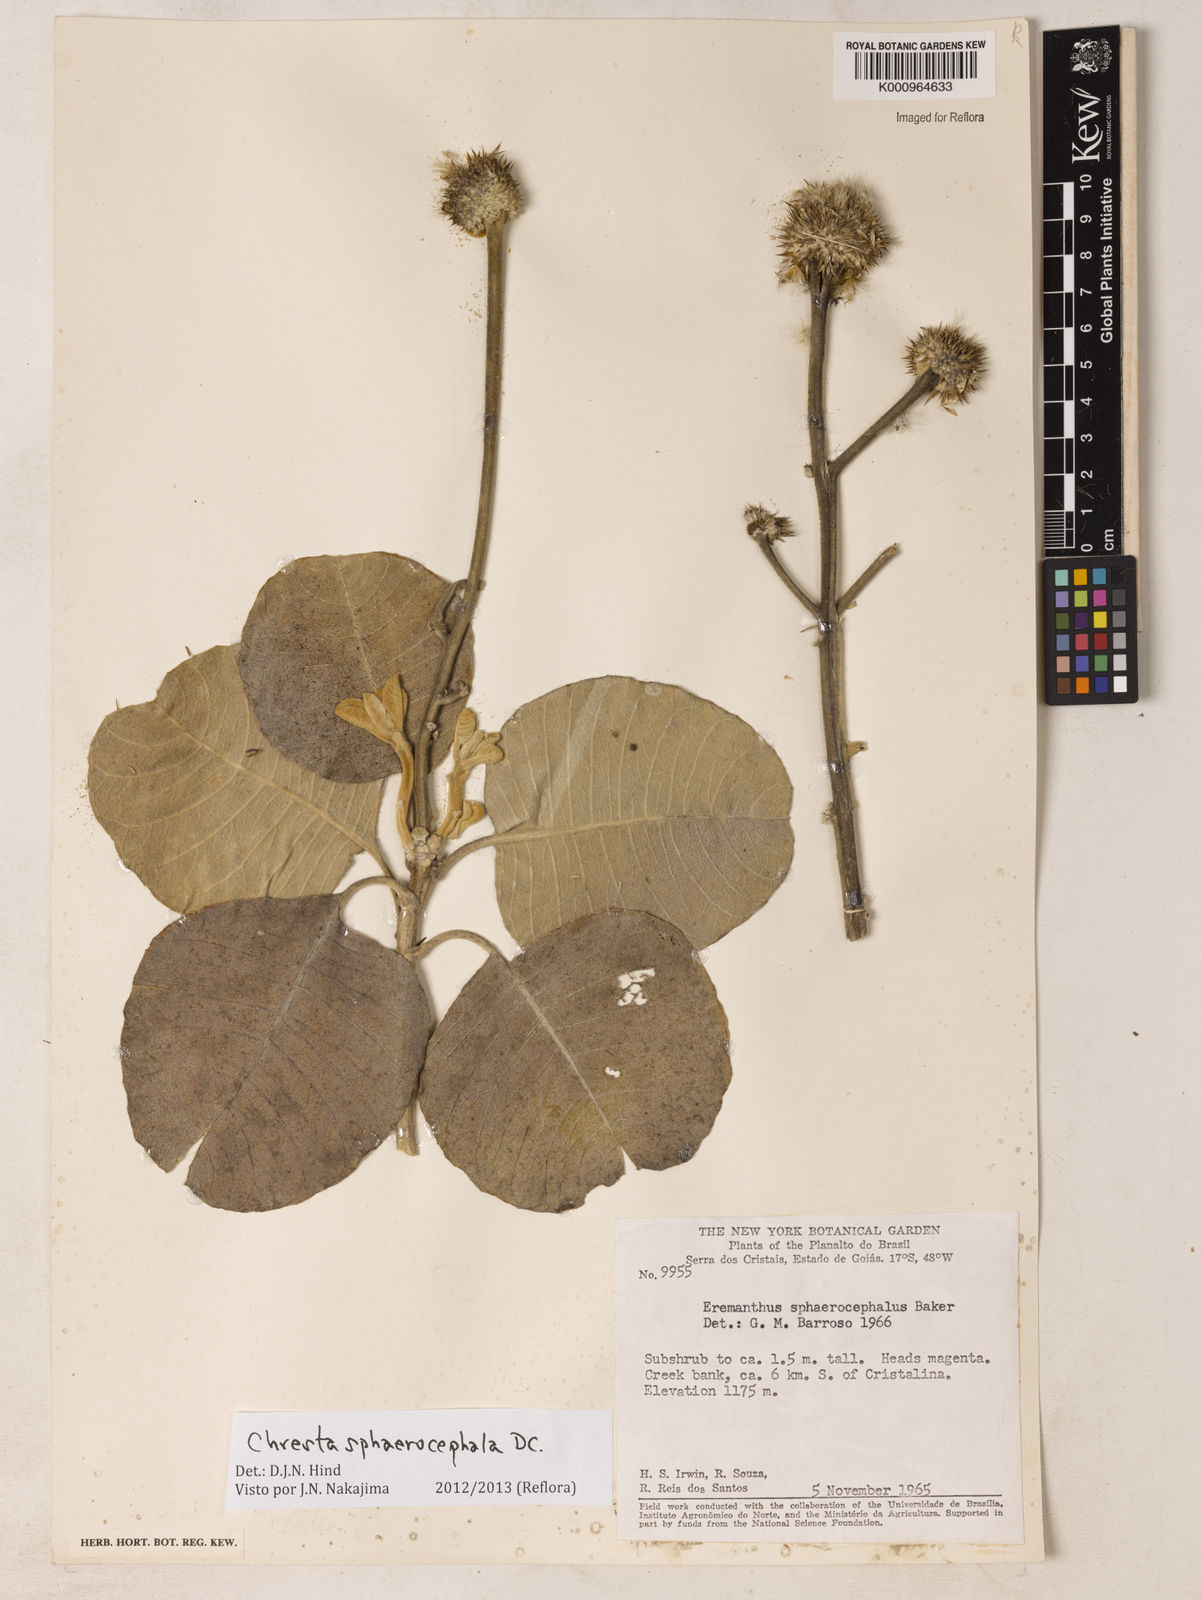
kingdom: Plantae
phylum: Tracheophyta
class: Magnoliopsida
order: Asterales
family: Asteraceae
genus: Chresta
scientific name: Chresta sphaerocephala
